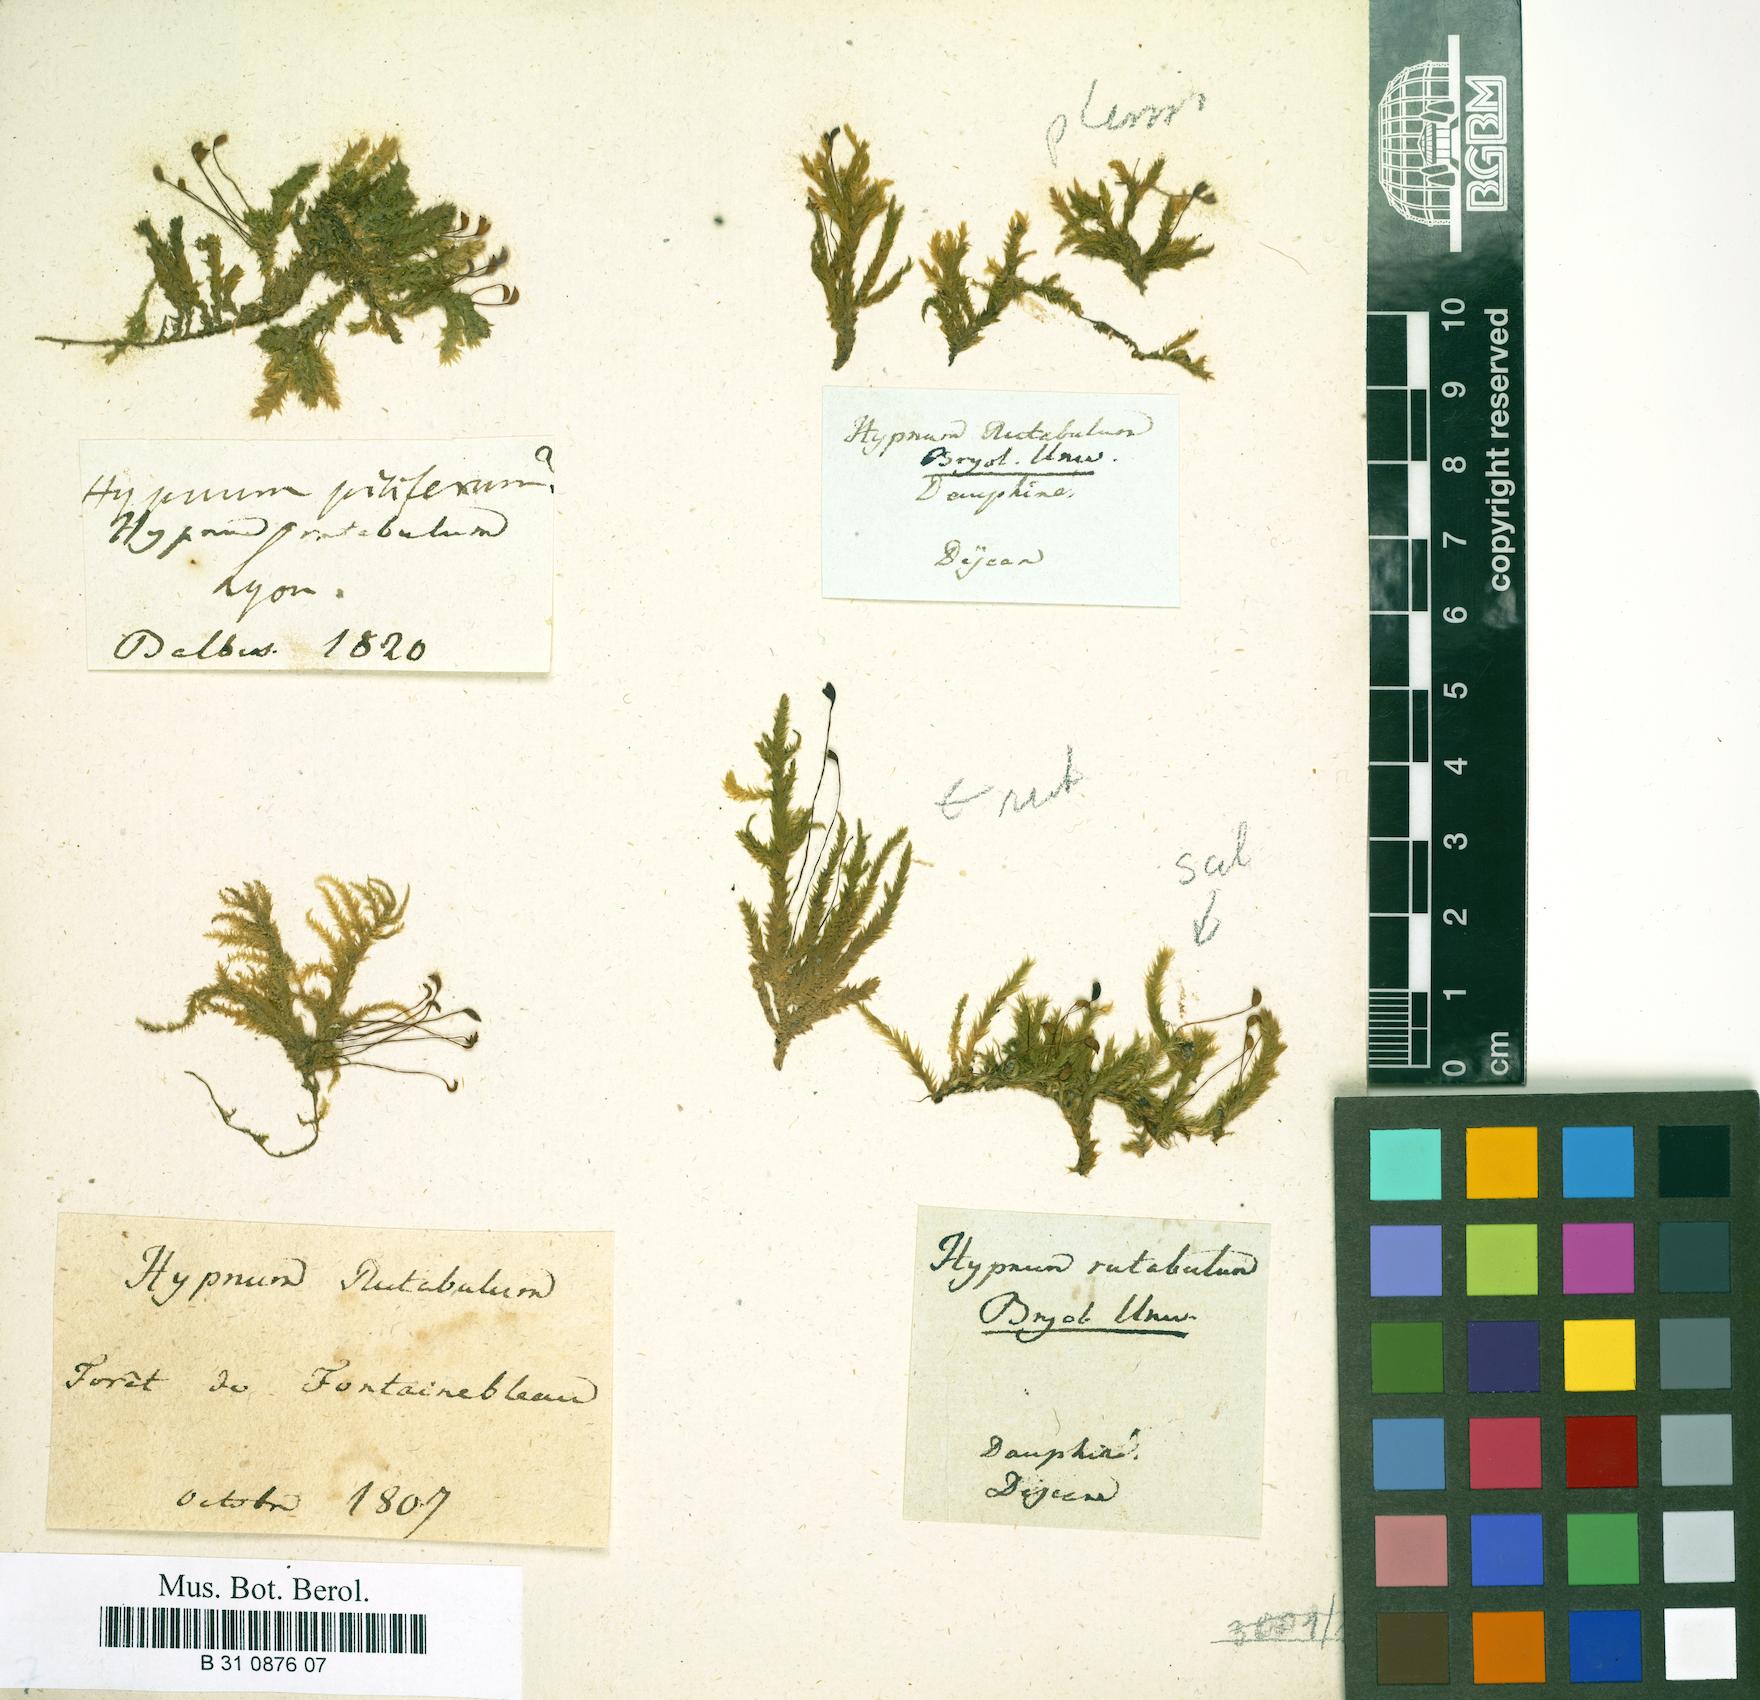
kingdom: Plantae
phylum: Bryophyta
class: Bryopsida
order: Hypnales
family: Brachytheciaceae
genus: Brachythecium
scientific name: Brachythecium rutabulum
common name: Rough-stalked feather-moss
